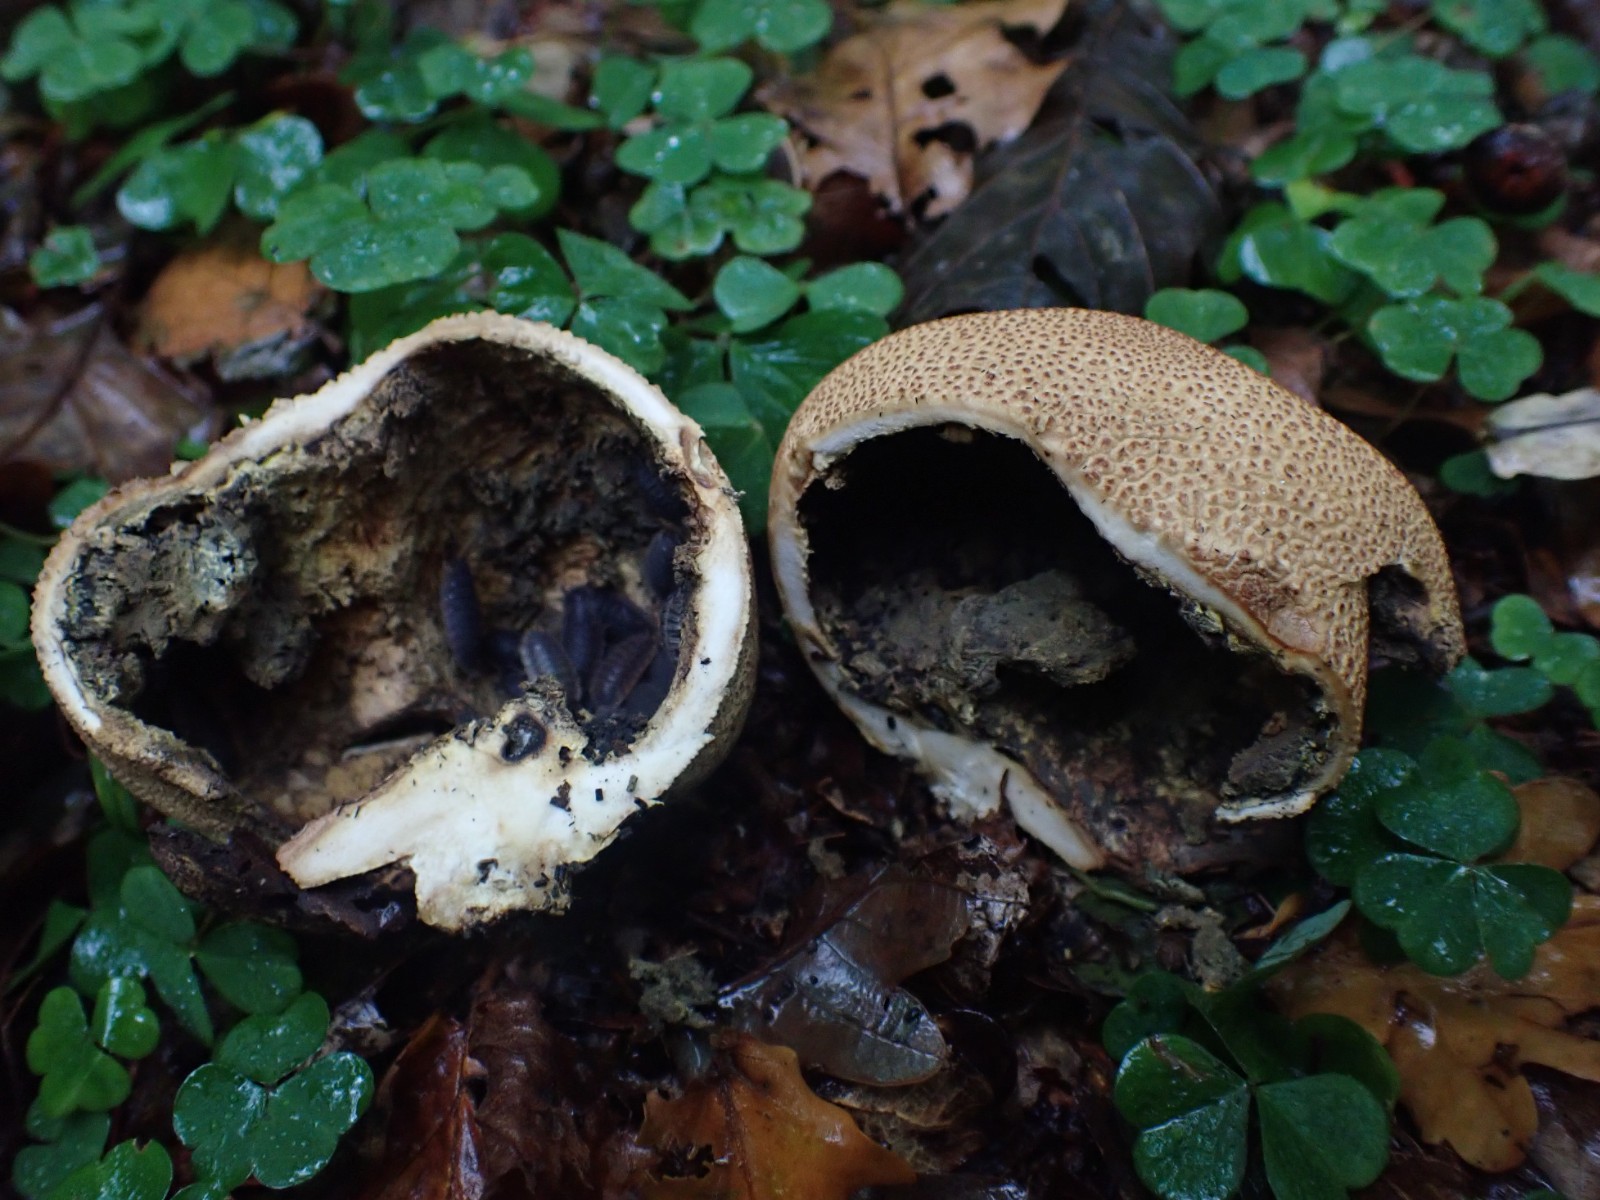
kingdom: Fungi
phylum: Basidiomycota
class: Agaricomycetes
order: Boletales
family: Sclerodermataceae
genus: Scleroderma
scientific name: Scleroderma citrinum
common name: almindelig bruskbold
